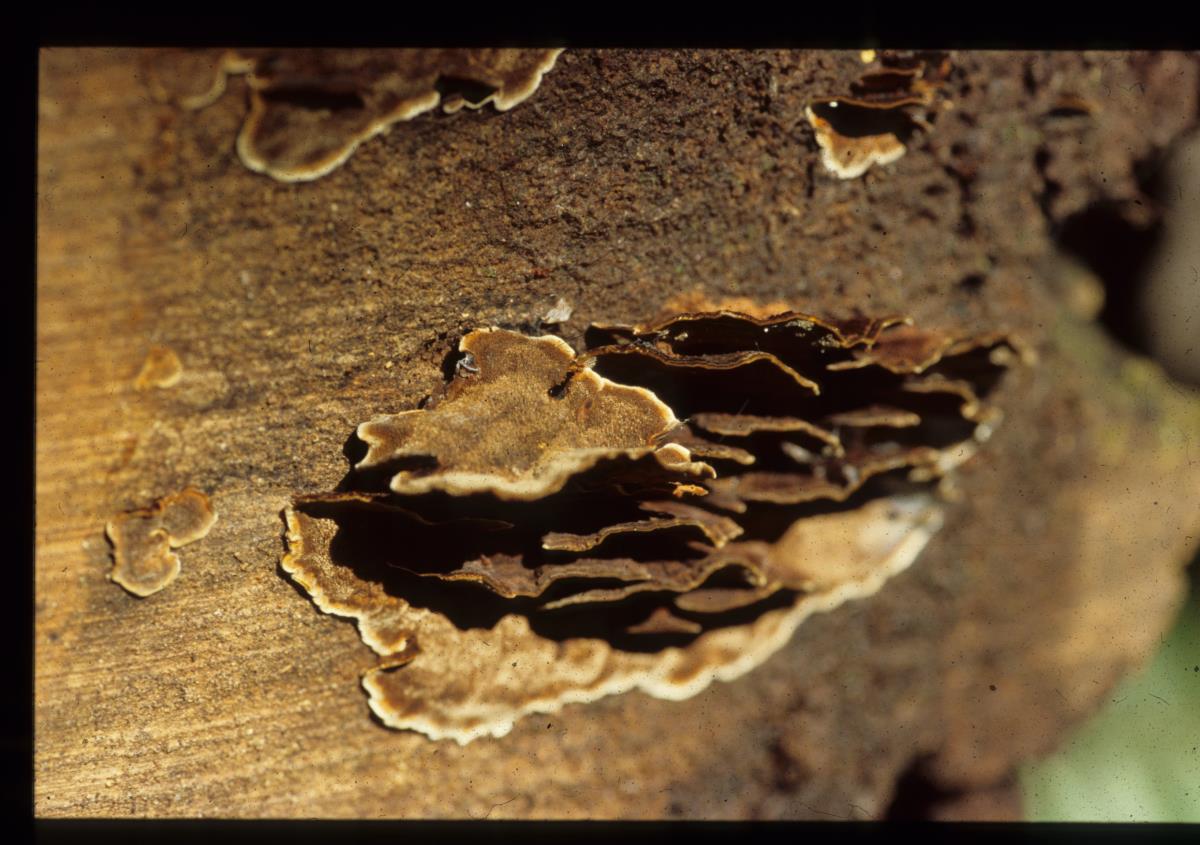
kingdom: Fungi
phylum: Basidiomycota
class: Agaricomycetes
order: Hymenochaetales
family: Hymenochaetaceae
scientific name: Hymenochaetaceae
